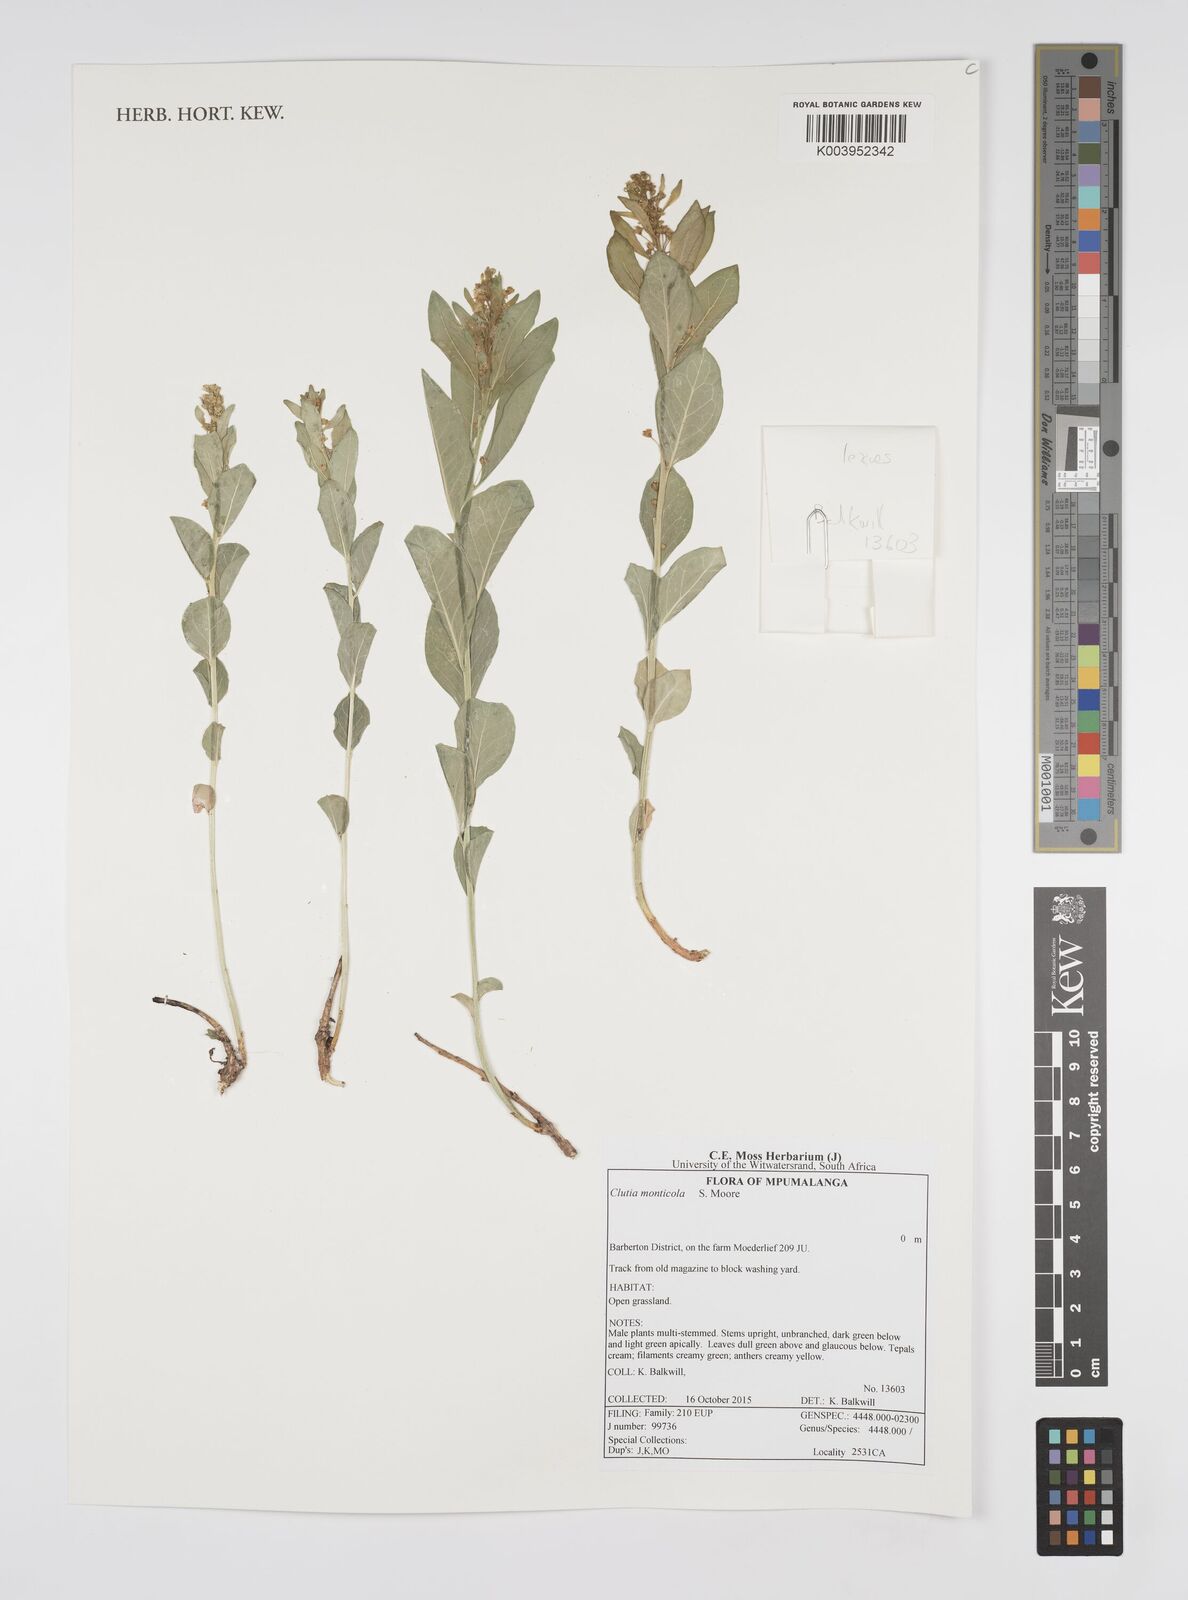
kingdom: Plantae
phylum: Tracheophyta
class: Magnoliopsida
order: Malpighiales
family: Peraceae
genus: Clutia
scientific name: Clutia monticola
